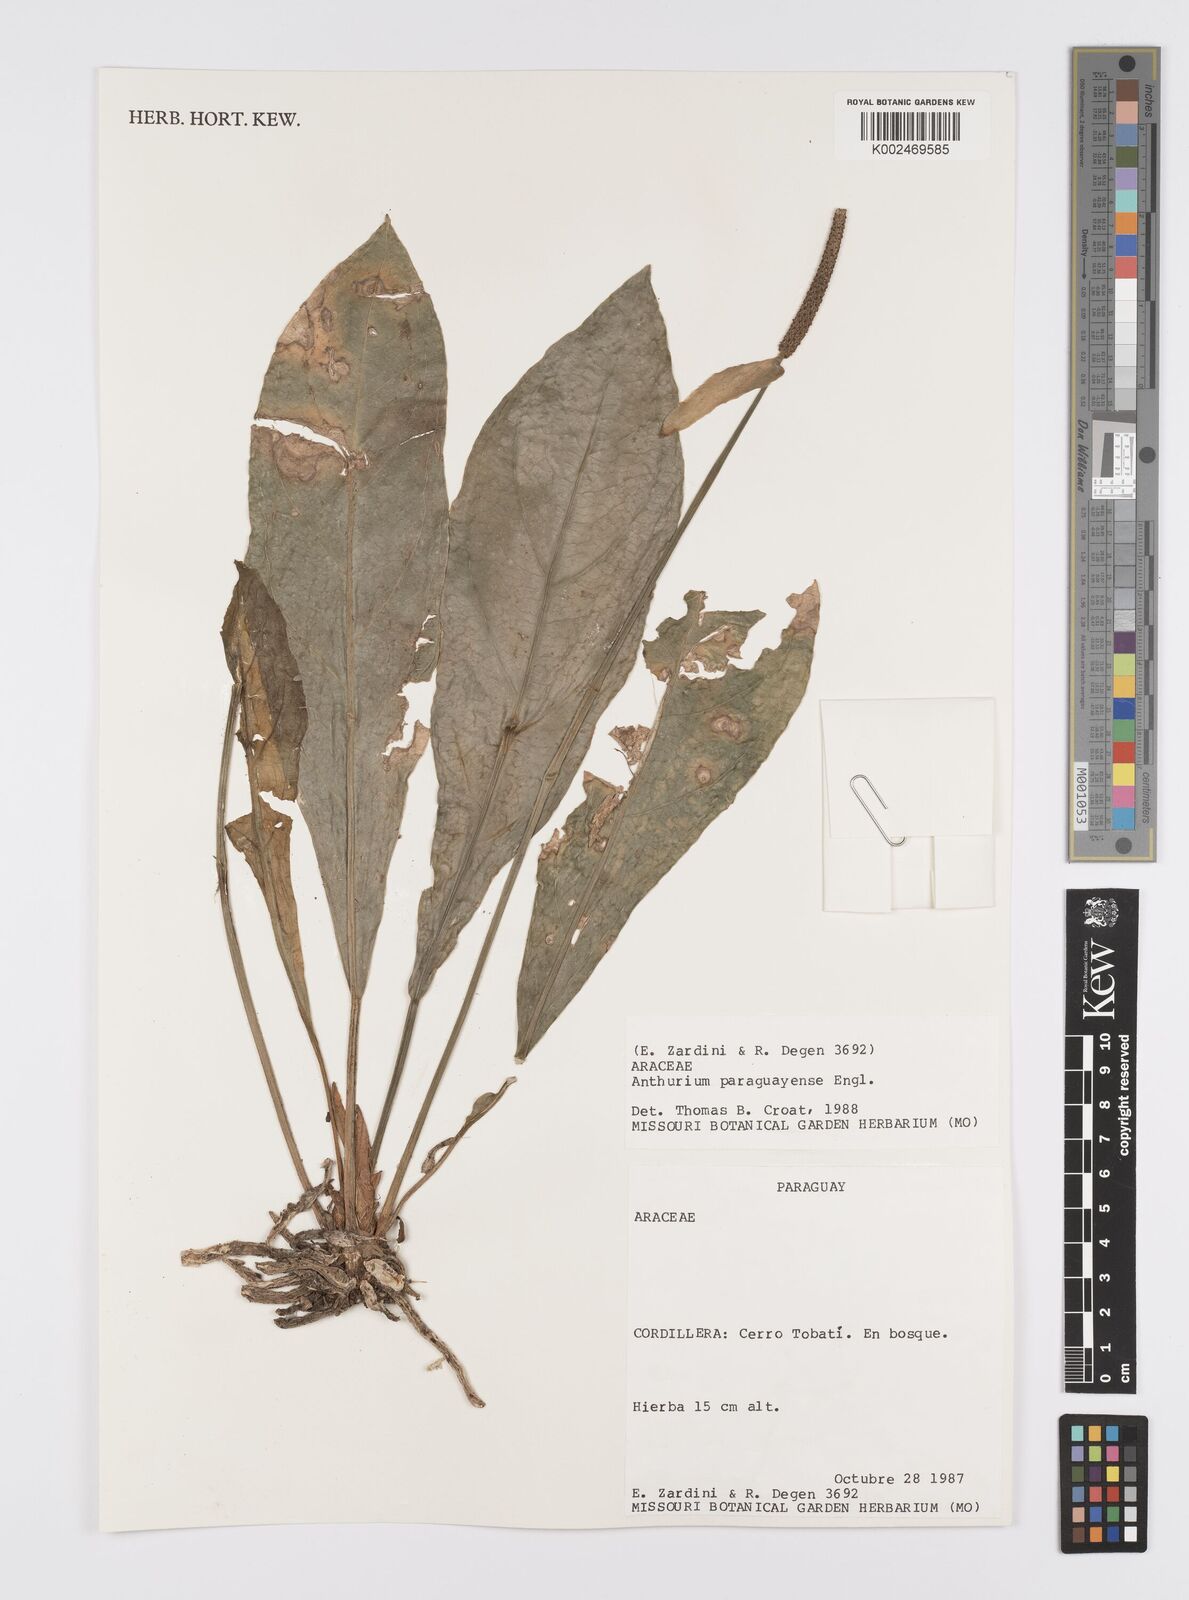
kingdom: Plantae
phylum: Tracheophyta
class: Liliopsida
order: Alismatales
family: Araceae
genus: Anthurium
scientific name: Anthurium paraguayense
